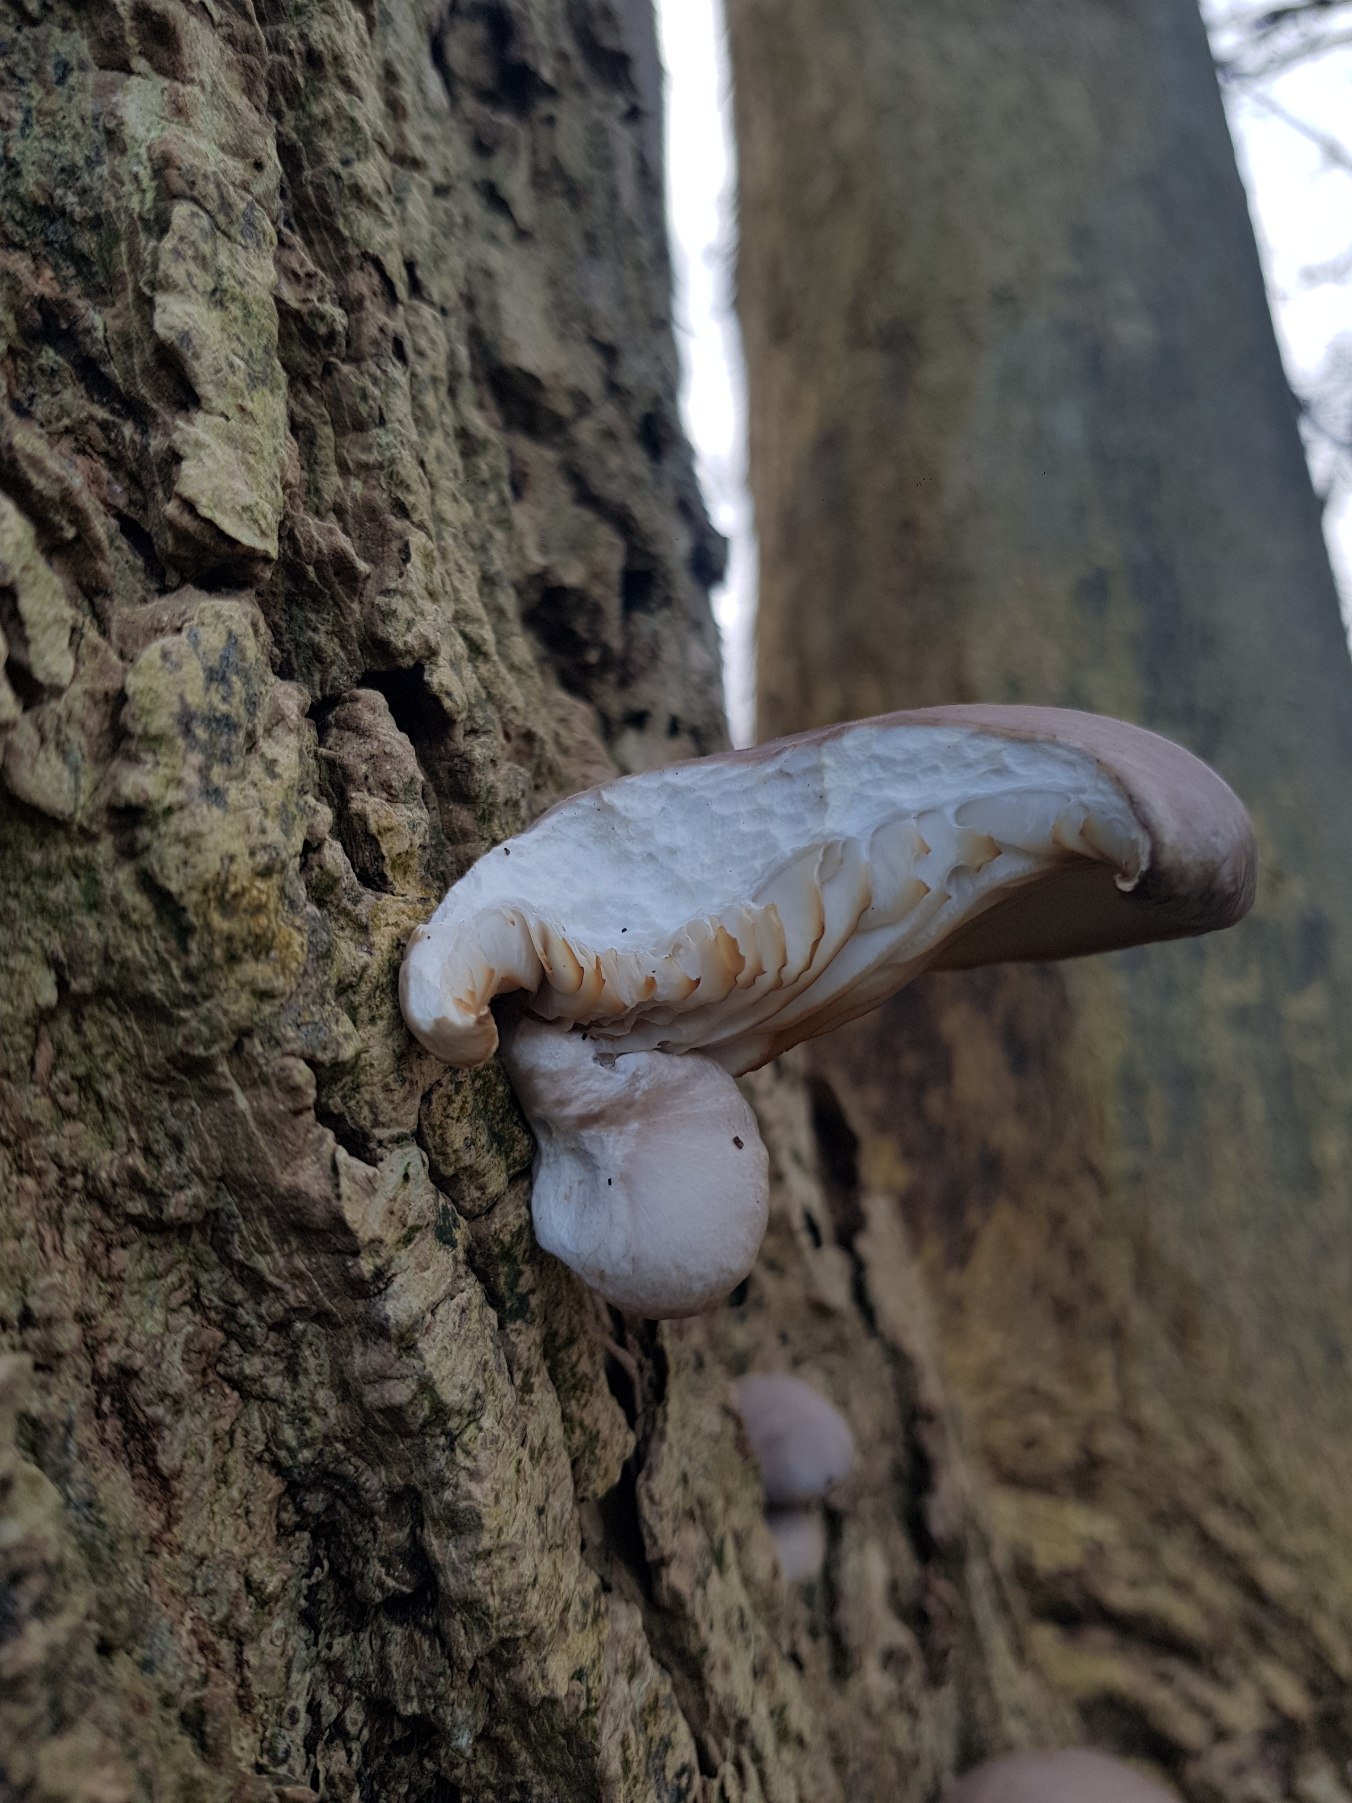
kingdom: Fungi
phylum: Basidiomycota
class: Agaricomycetes
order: Agaricales
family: Pleurotaceae
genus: Pleurotus
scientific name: Pleurotus ostreatus
